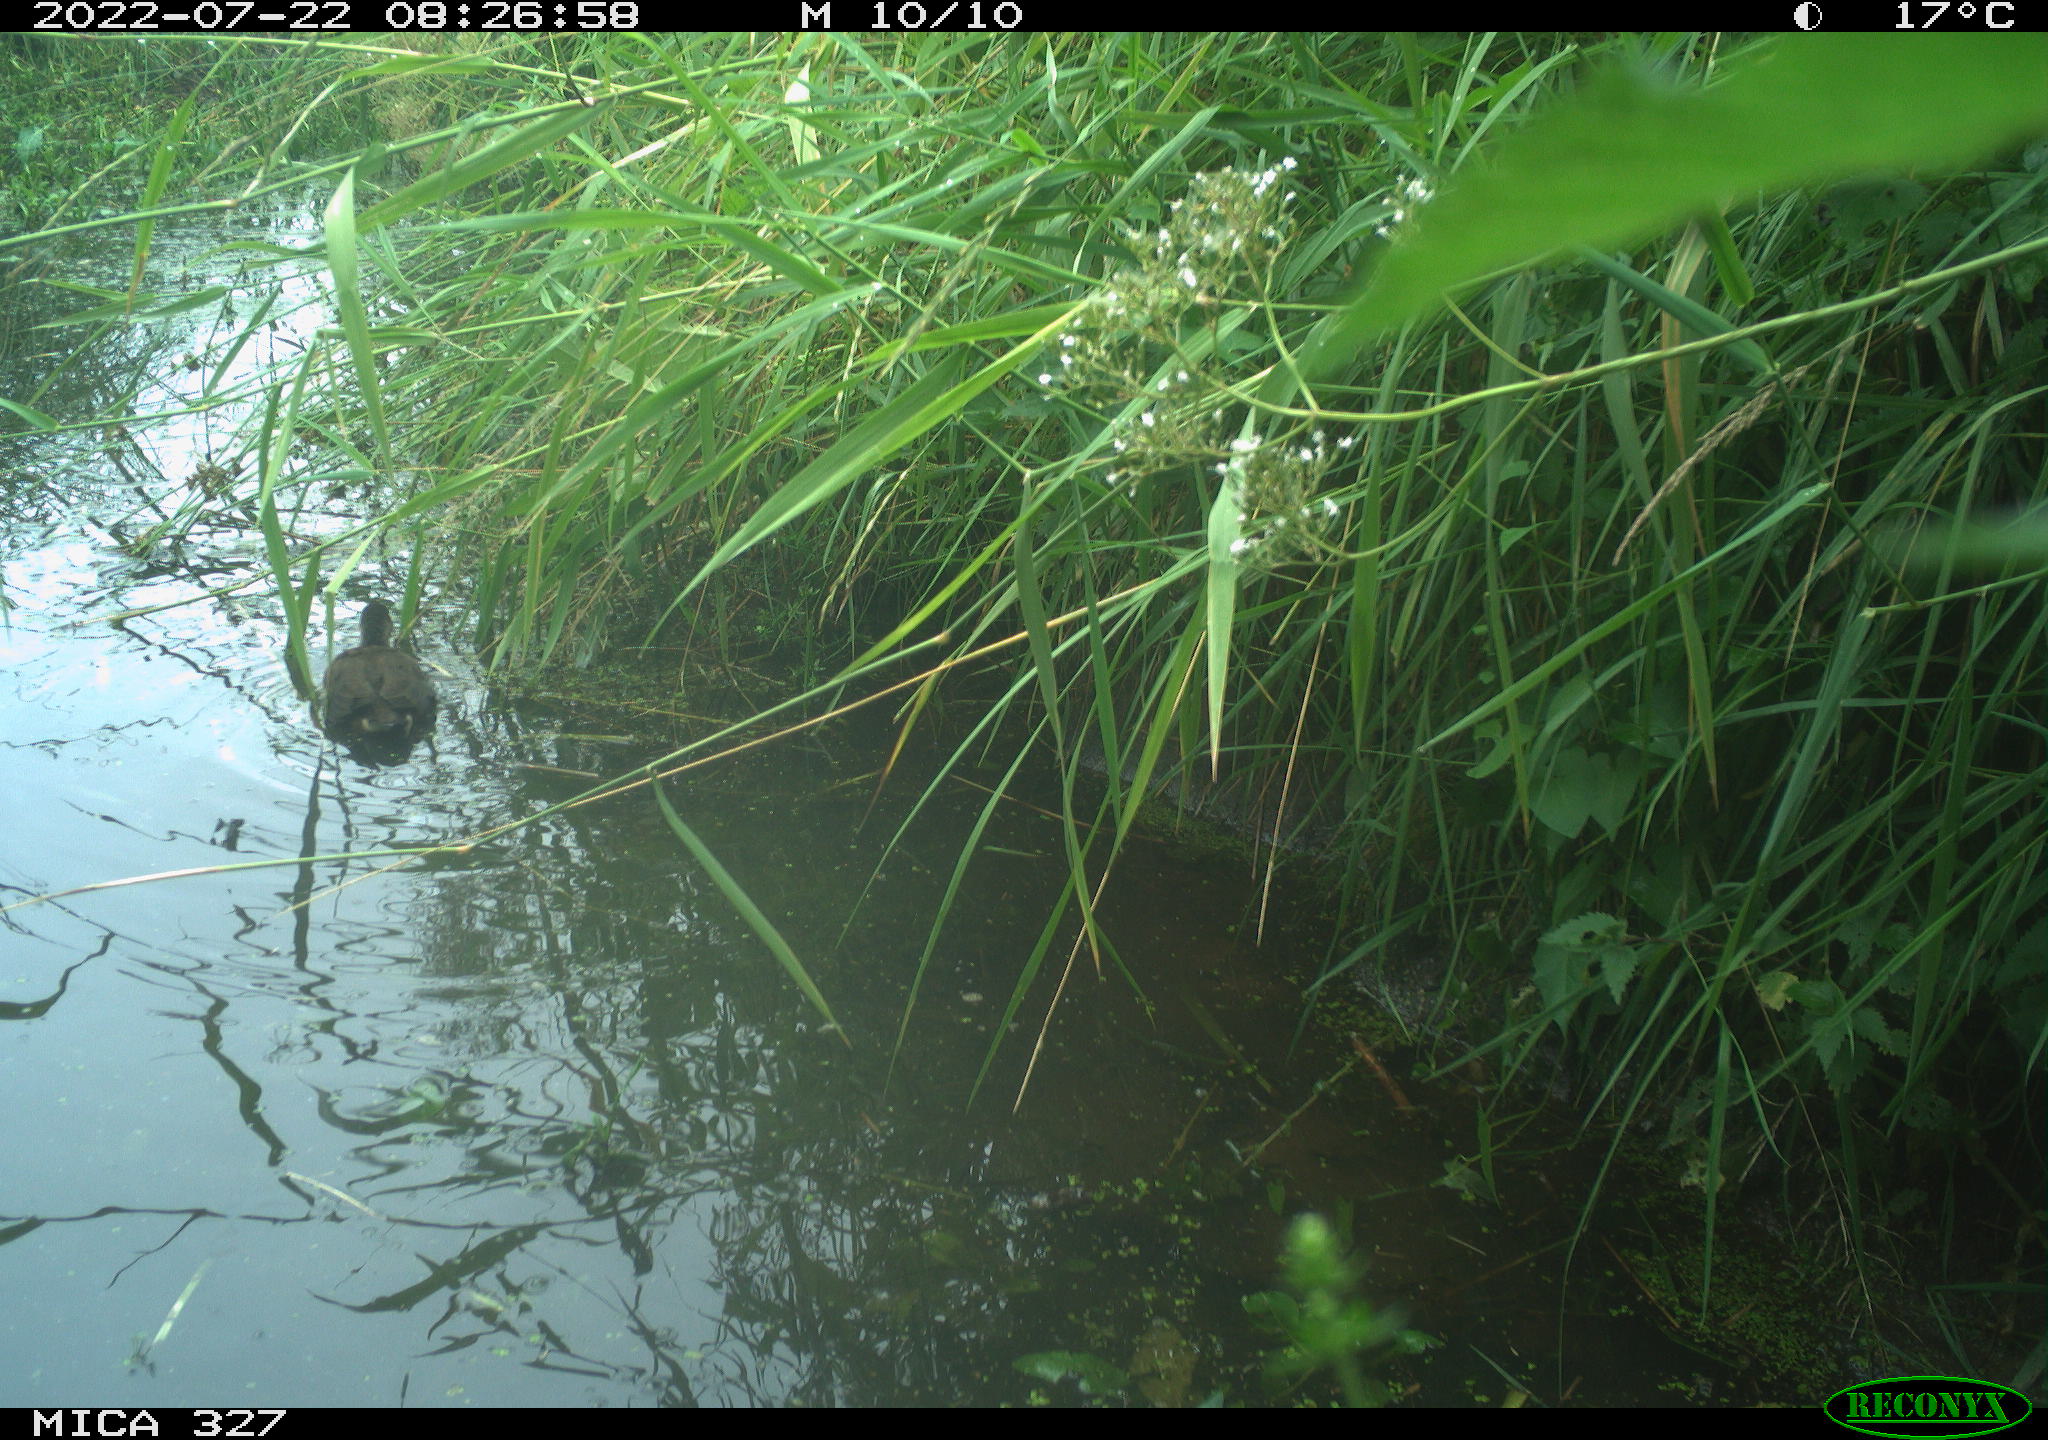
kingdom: Animalia
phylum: Chordata
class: Aves
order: Gruiformes
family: Rallidae
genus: Gallinula
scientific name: Gallinula chloropus
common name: Common moorhen
